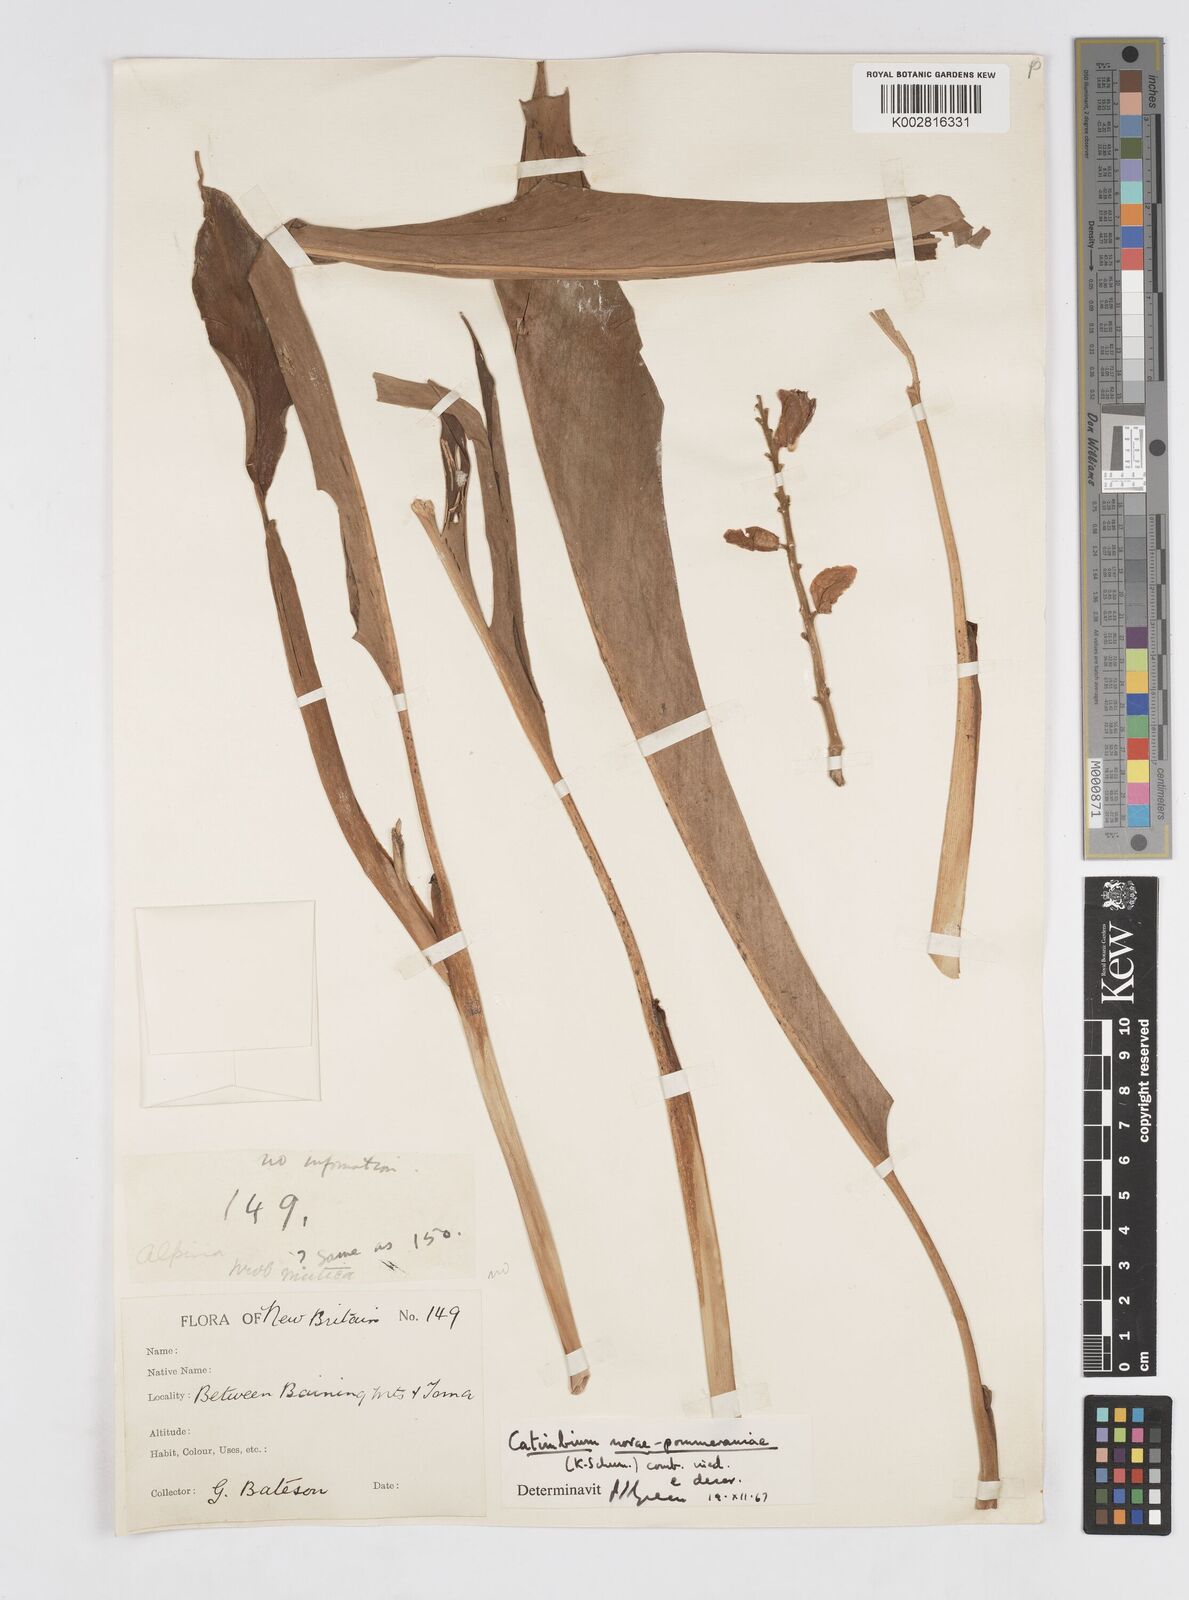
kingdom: Plantae
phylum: Tracheophyta
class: Liliopsida
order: Zingiberales
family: Zingiberaceae
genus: Alpinia
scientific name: Alpinia novae-pommeraniae
